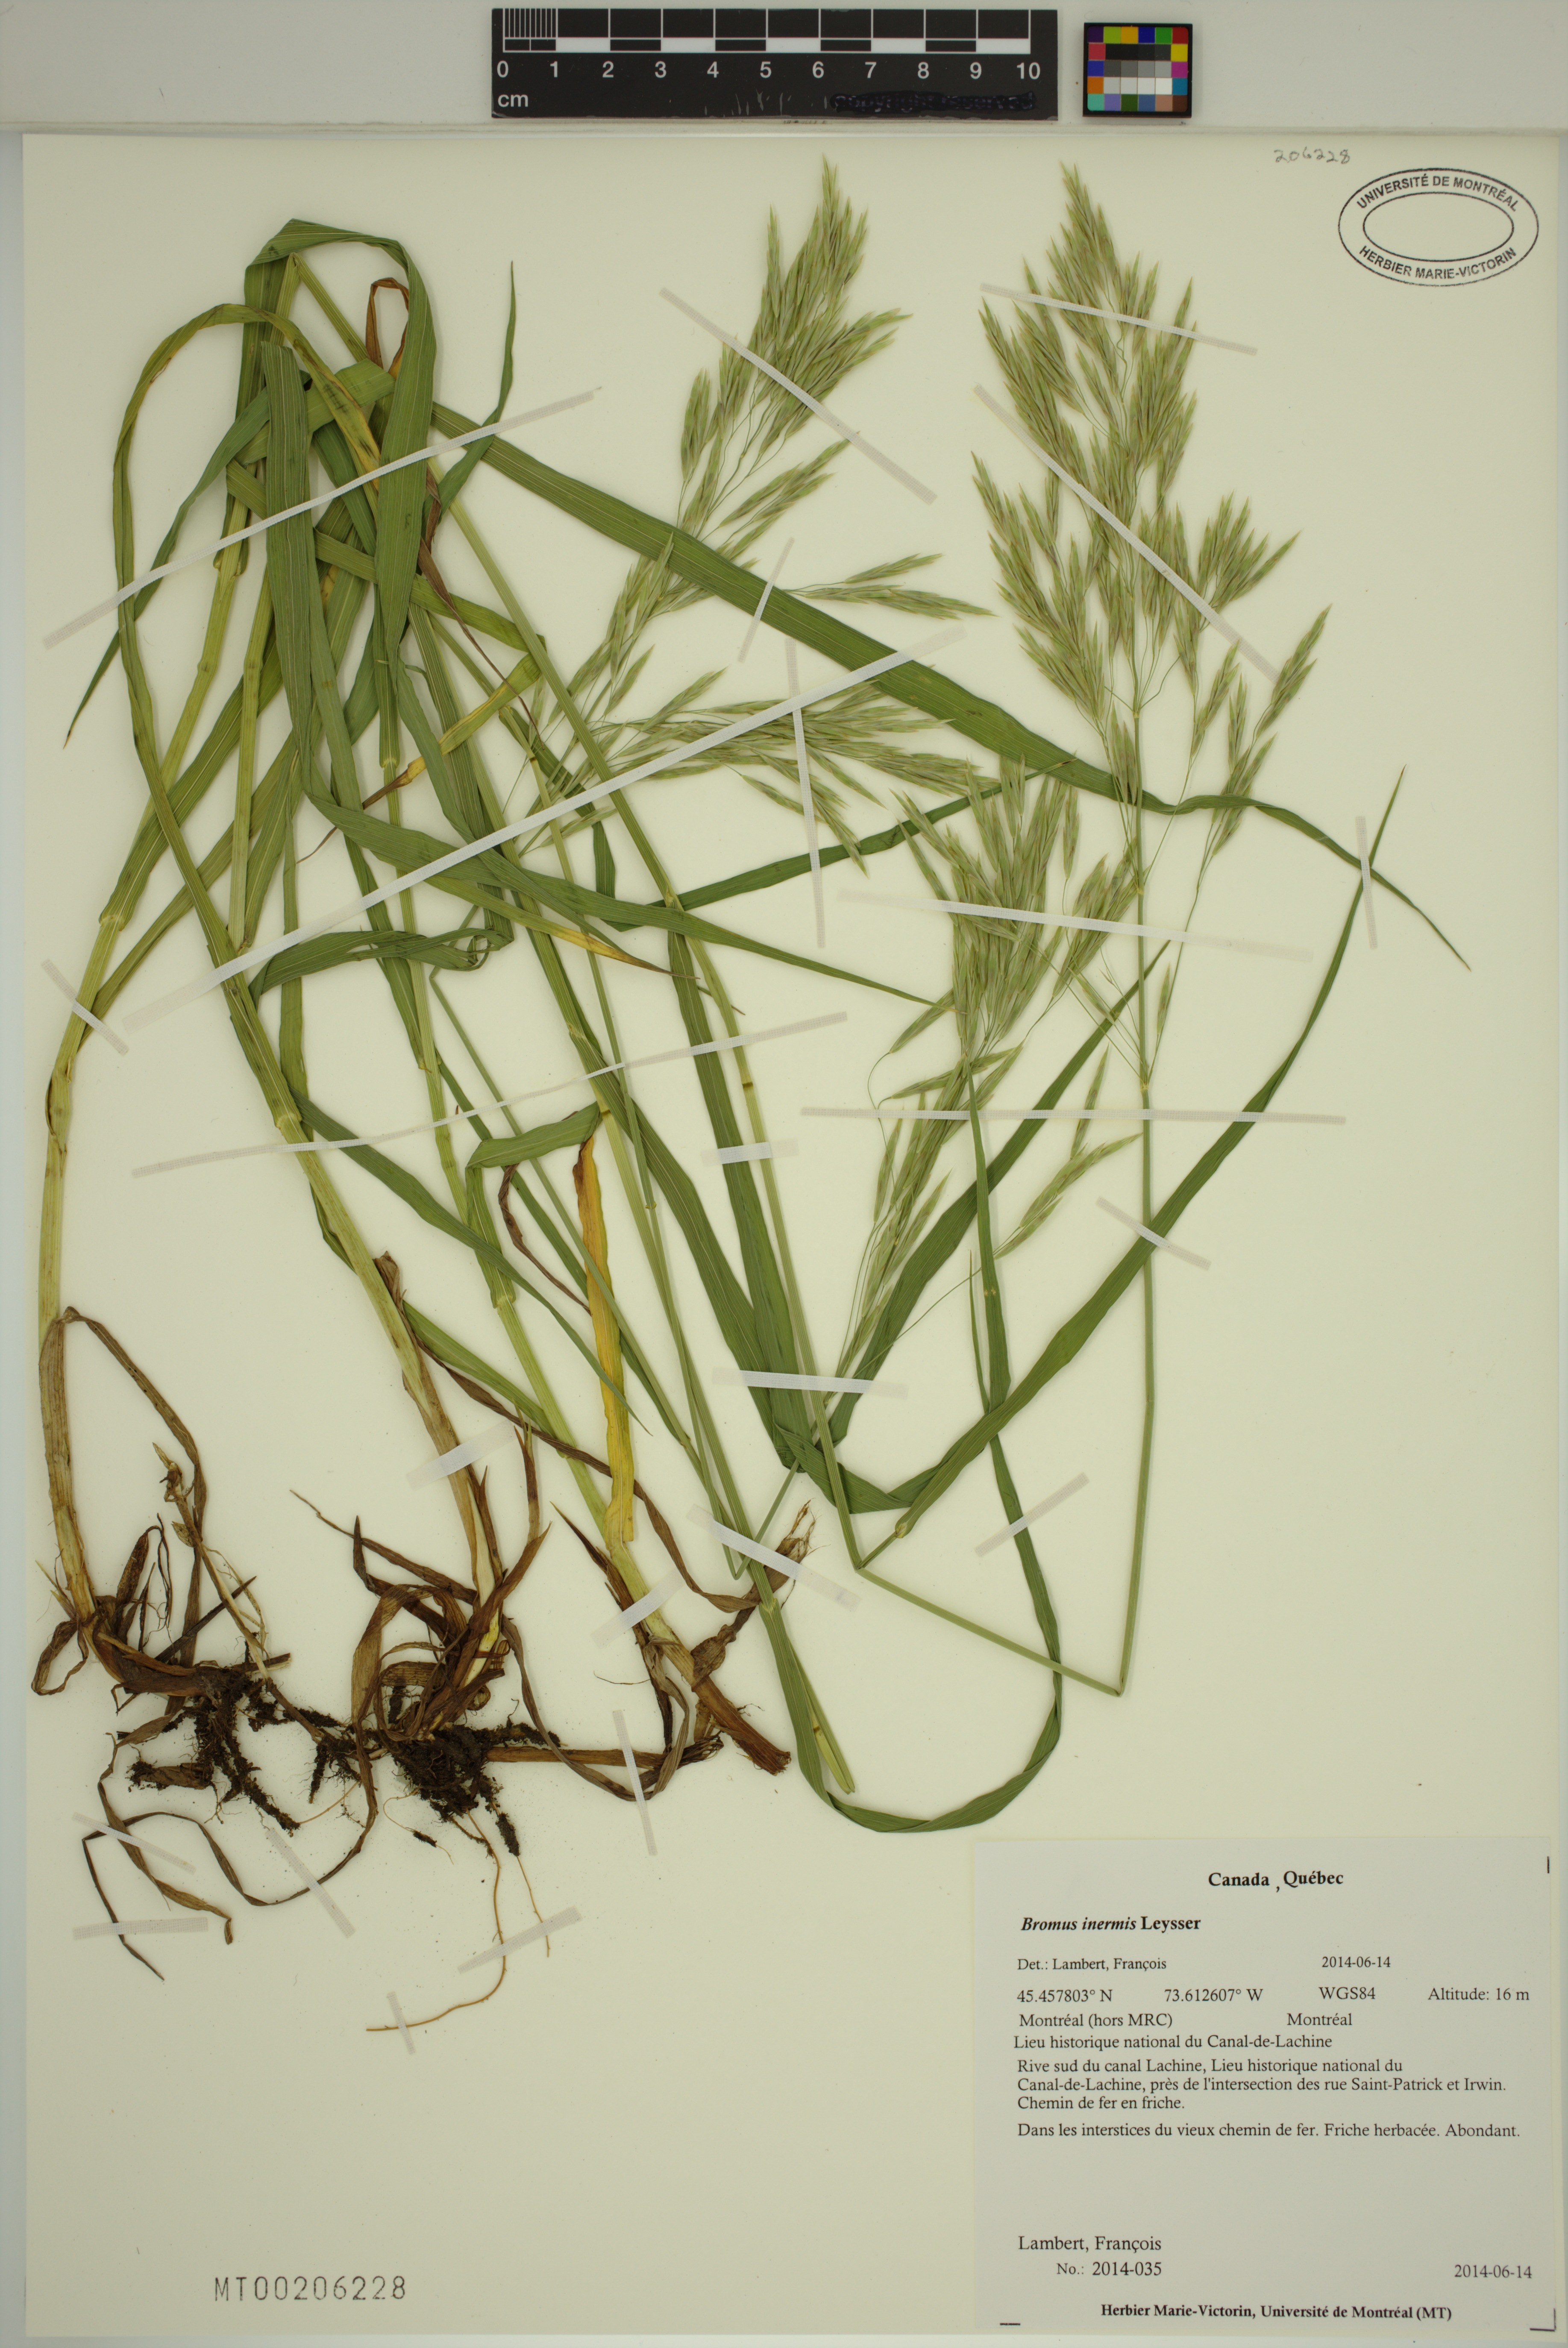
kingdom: Plantae
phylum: Tracheophyta
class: Liliopsida
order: Poales
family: Poaceae
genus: Bromus
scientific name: Bromus inermis
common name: Smooth brome
